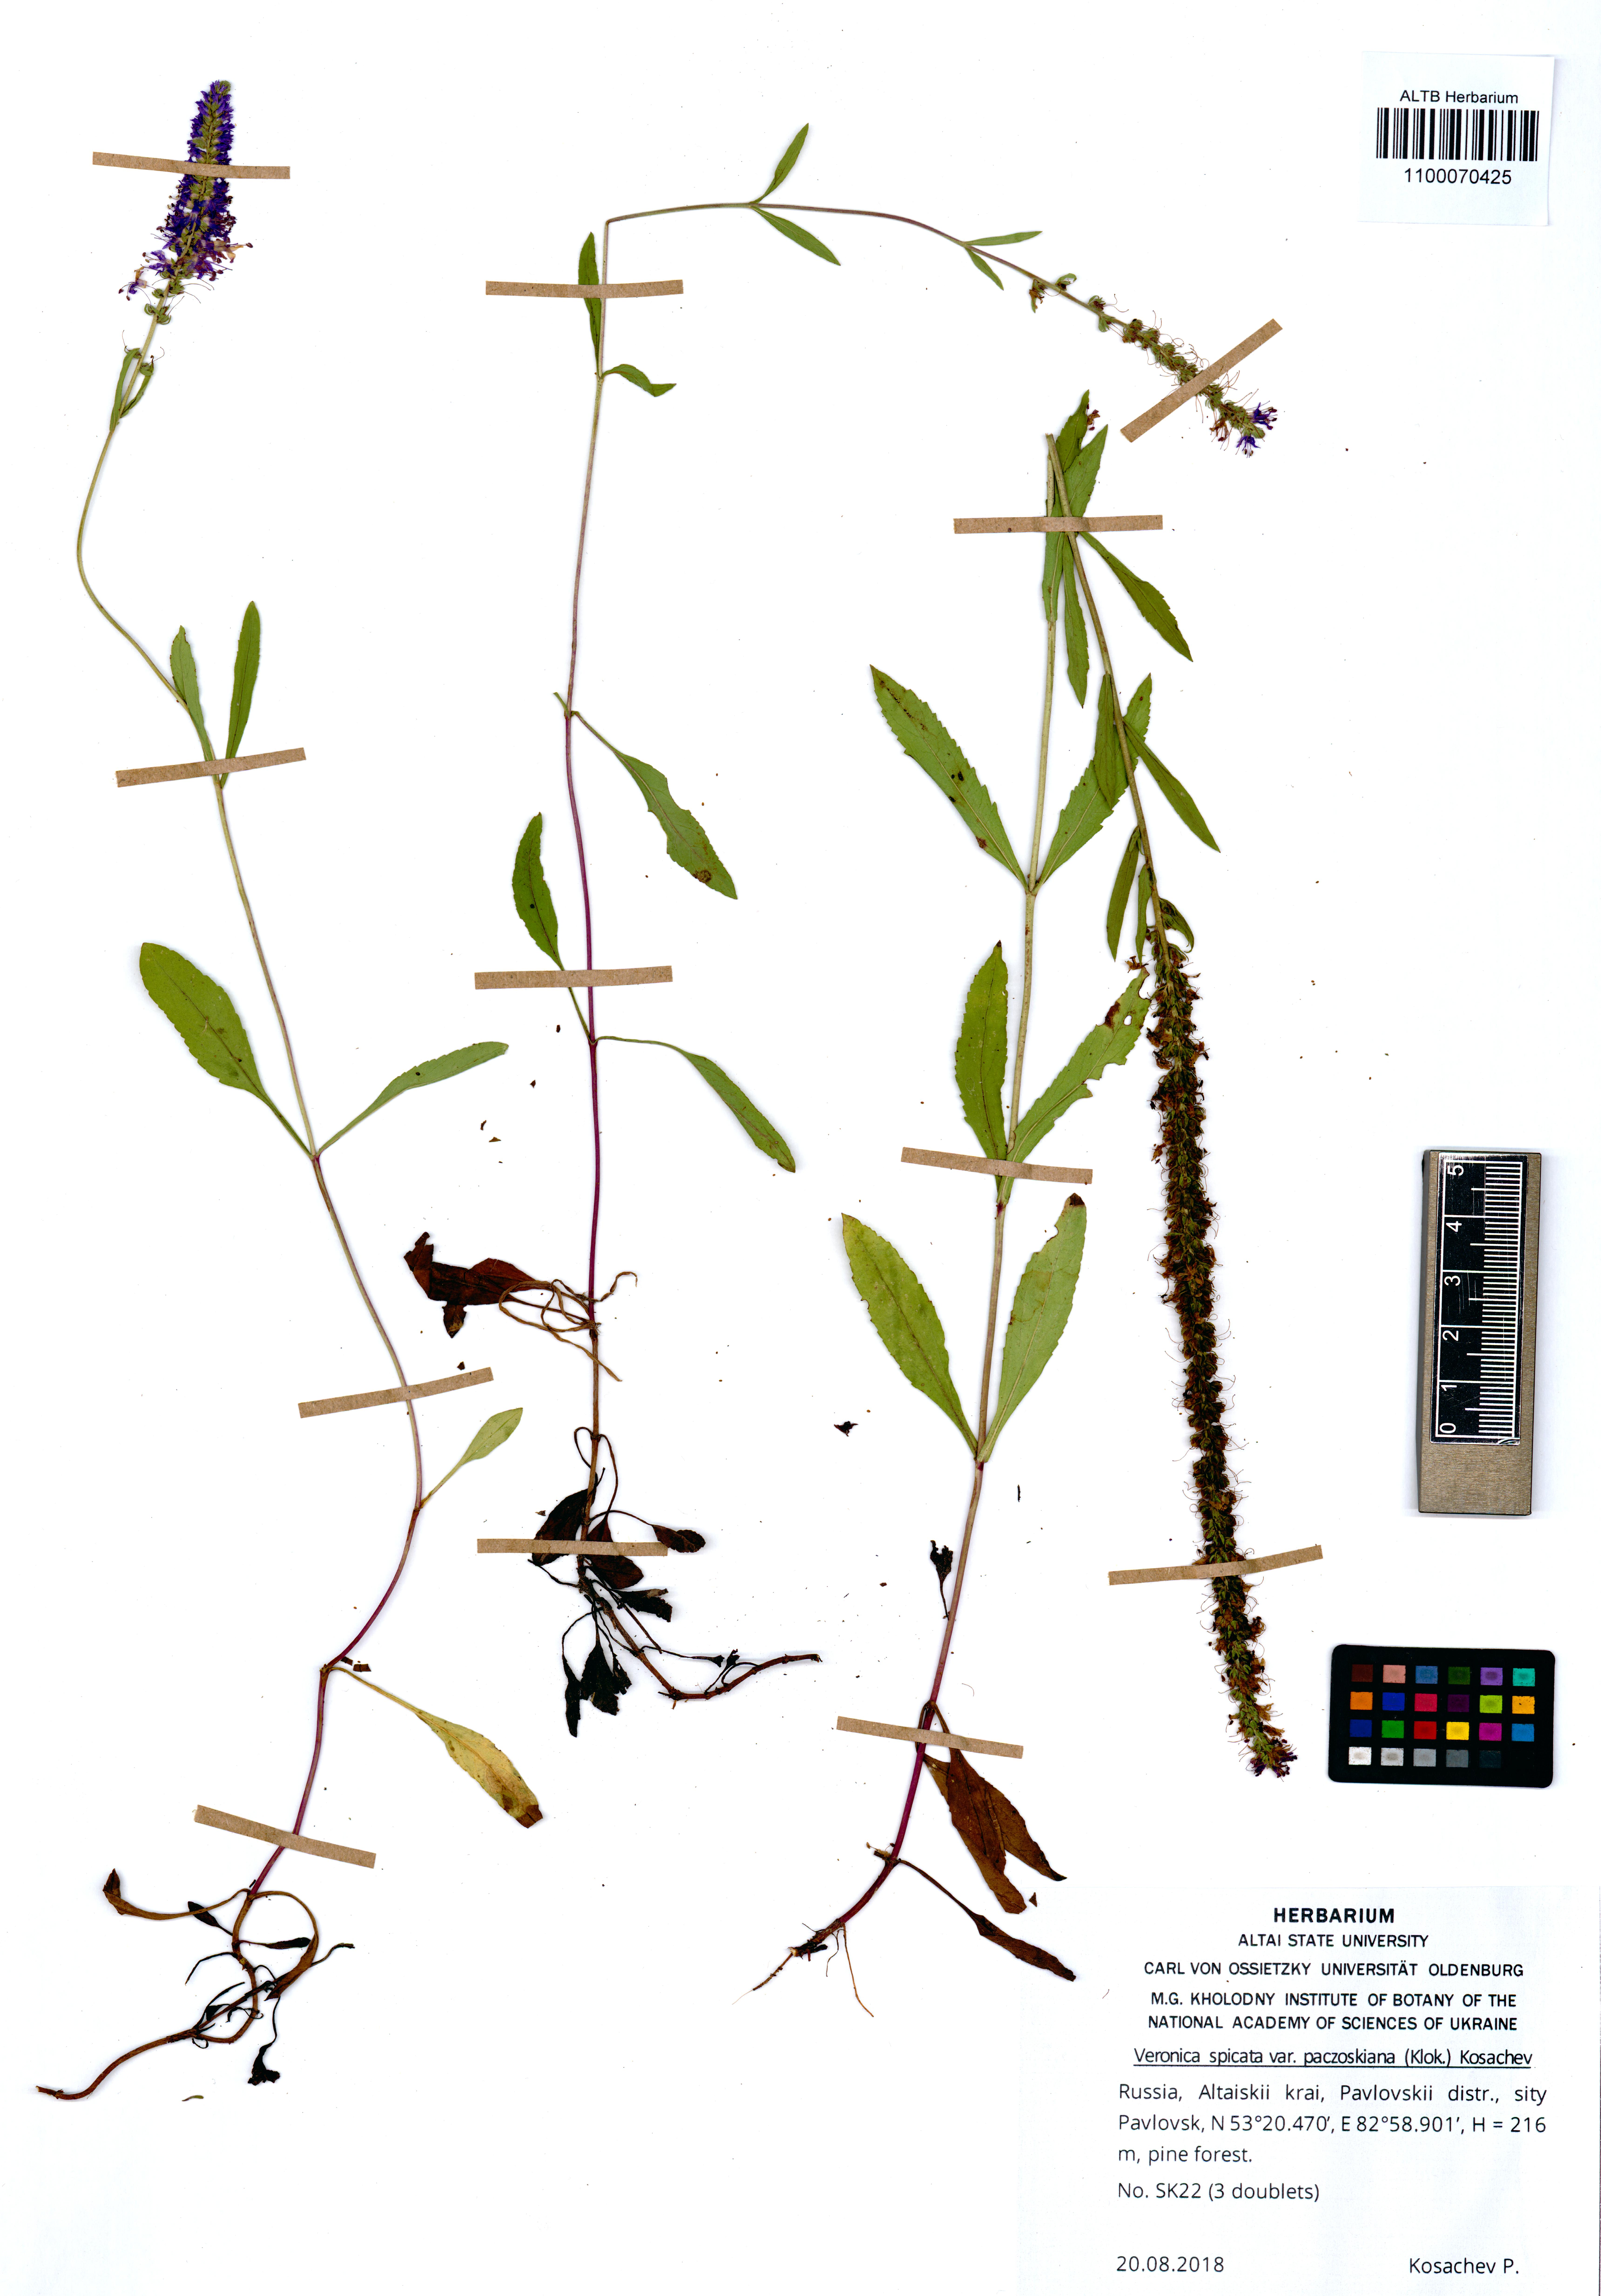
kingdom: Plantae
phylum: Tracheophyta
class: Magnoliopsida
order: Lamiales
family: Plantaginaceae
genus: Veronica
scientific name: Veronica spicata
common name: Spiked speedwell
